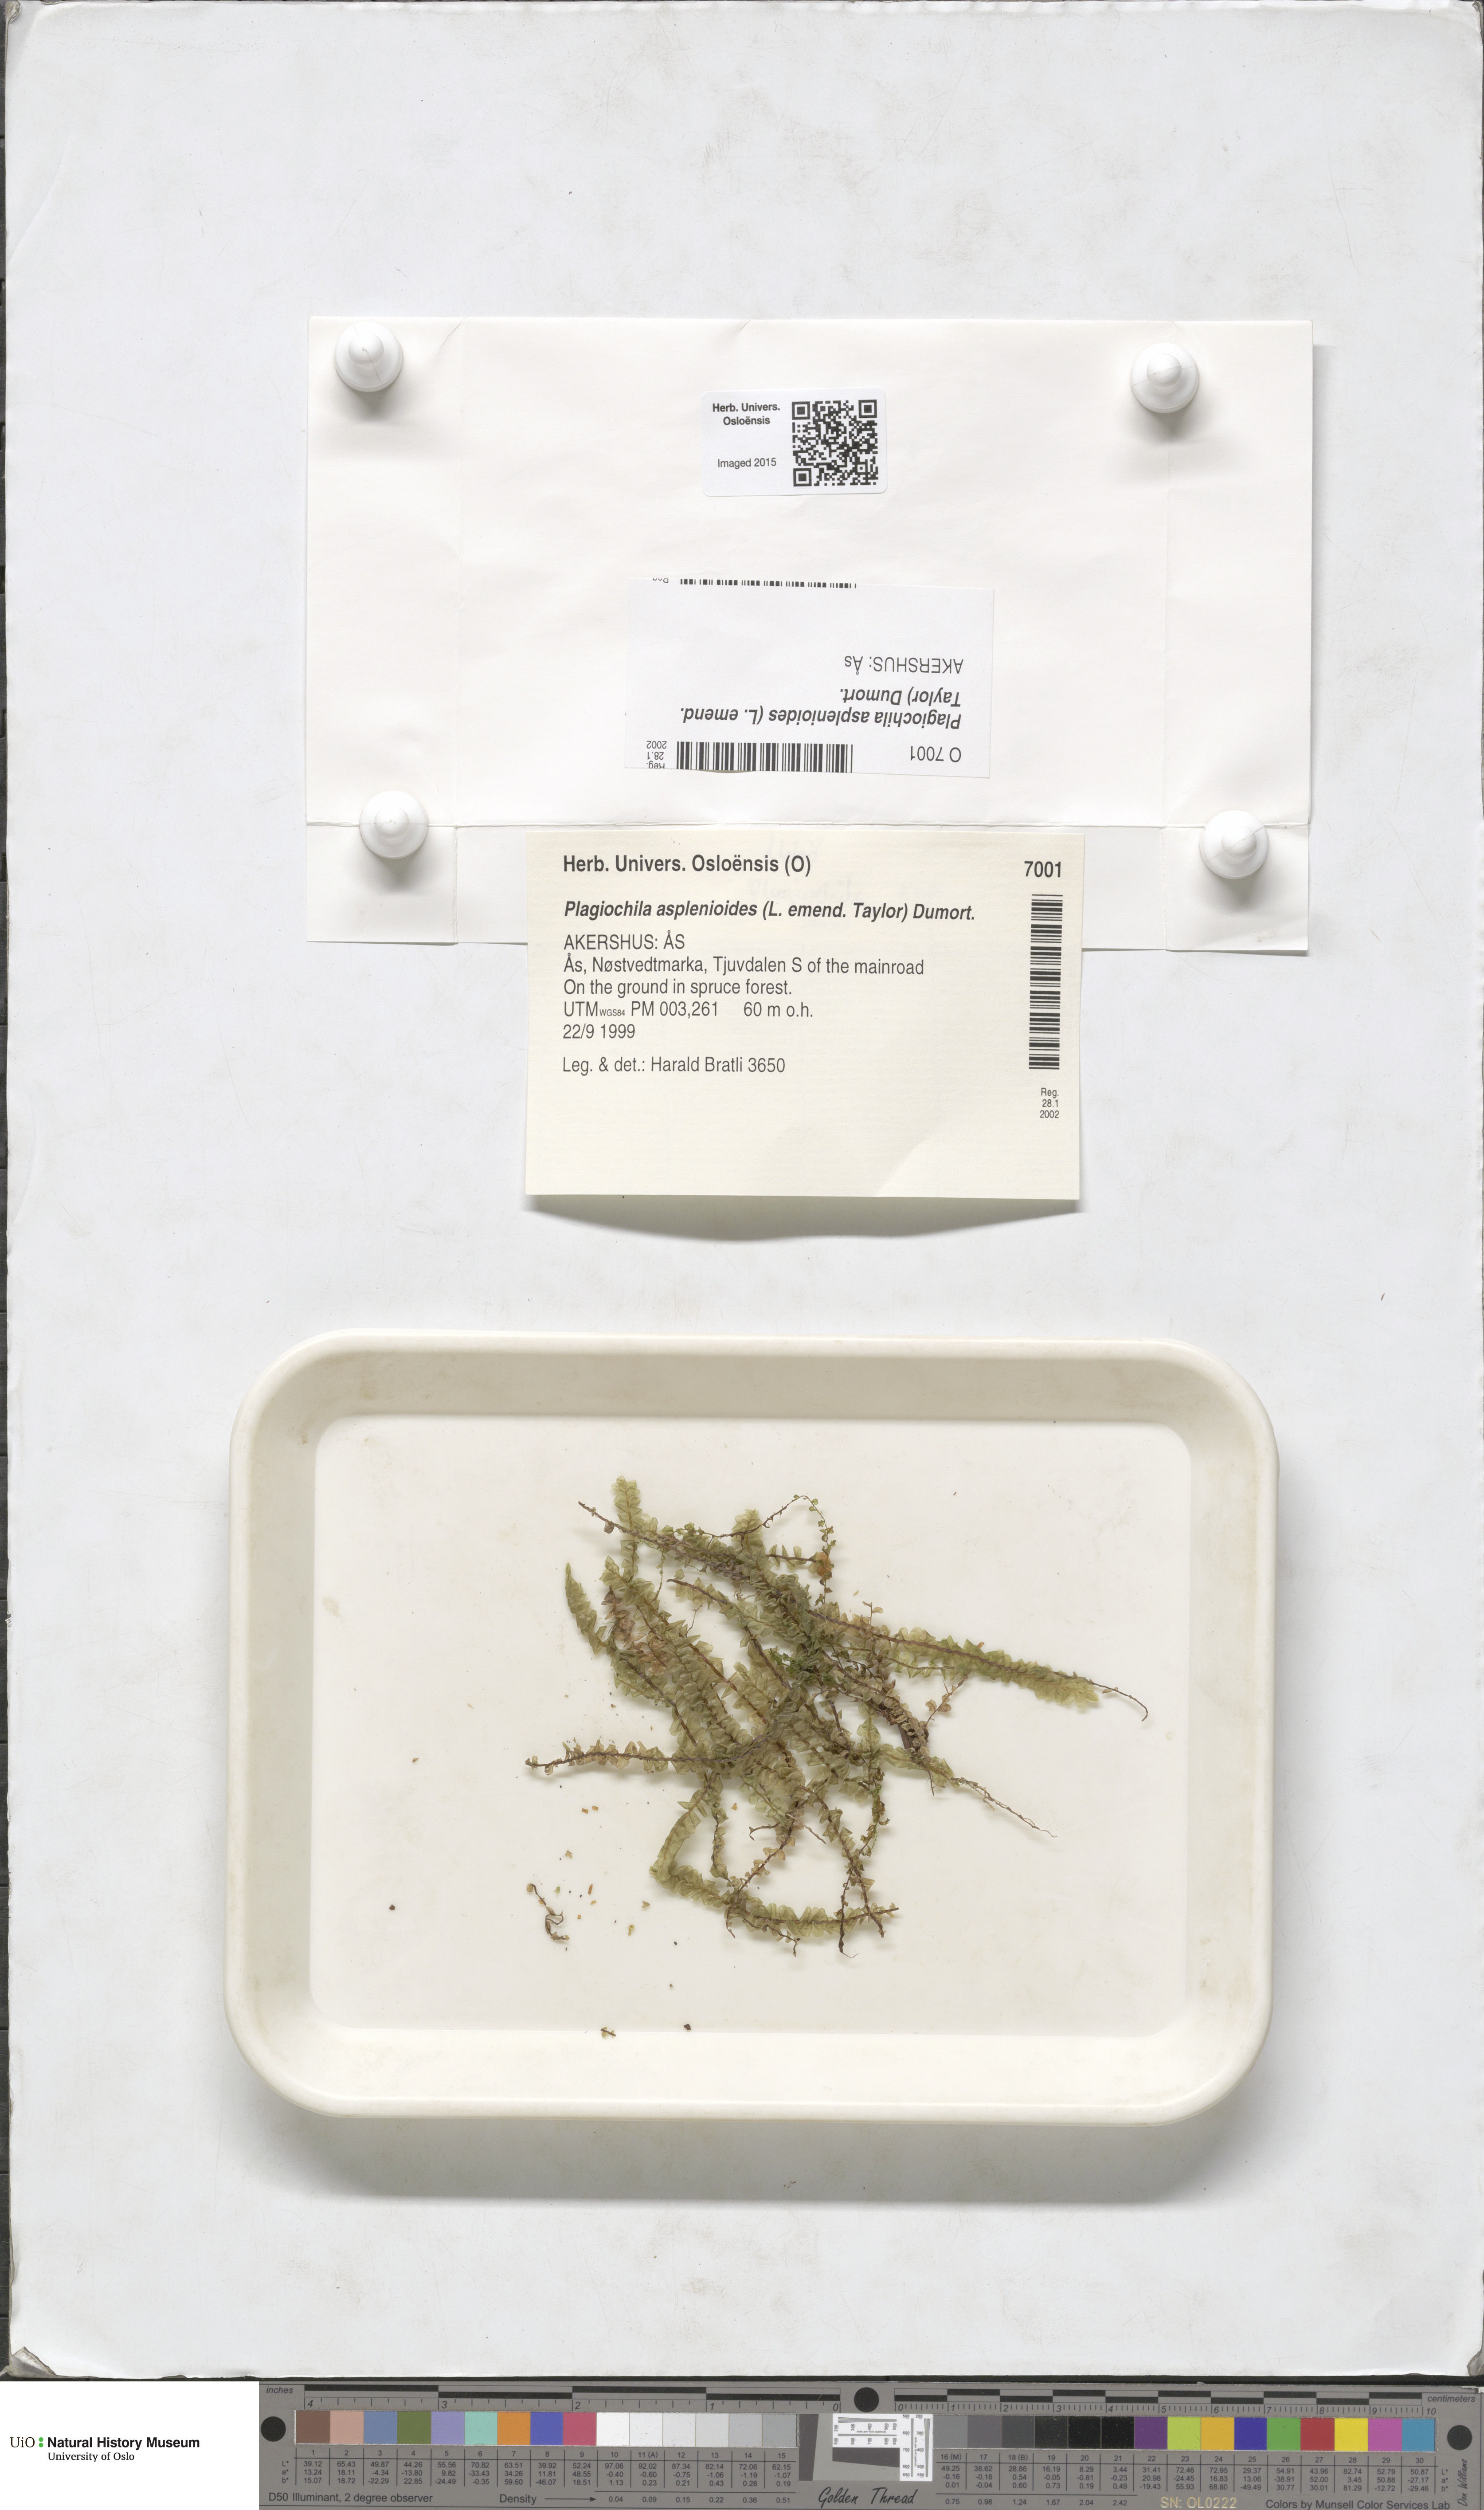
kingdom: Plantae
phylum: Marchantiophyta
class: Jungermanniopsida
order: Jungermanniales
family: Plagiochilaceae
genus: Plagiochila
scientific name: Plagiochila asplenioides
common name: Greater featherwort
